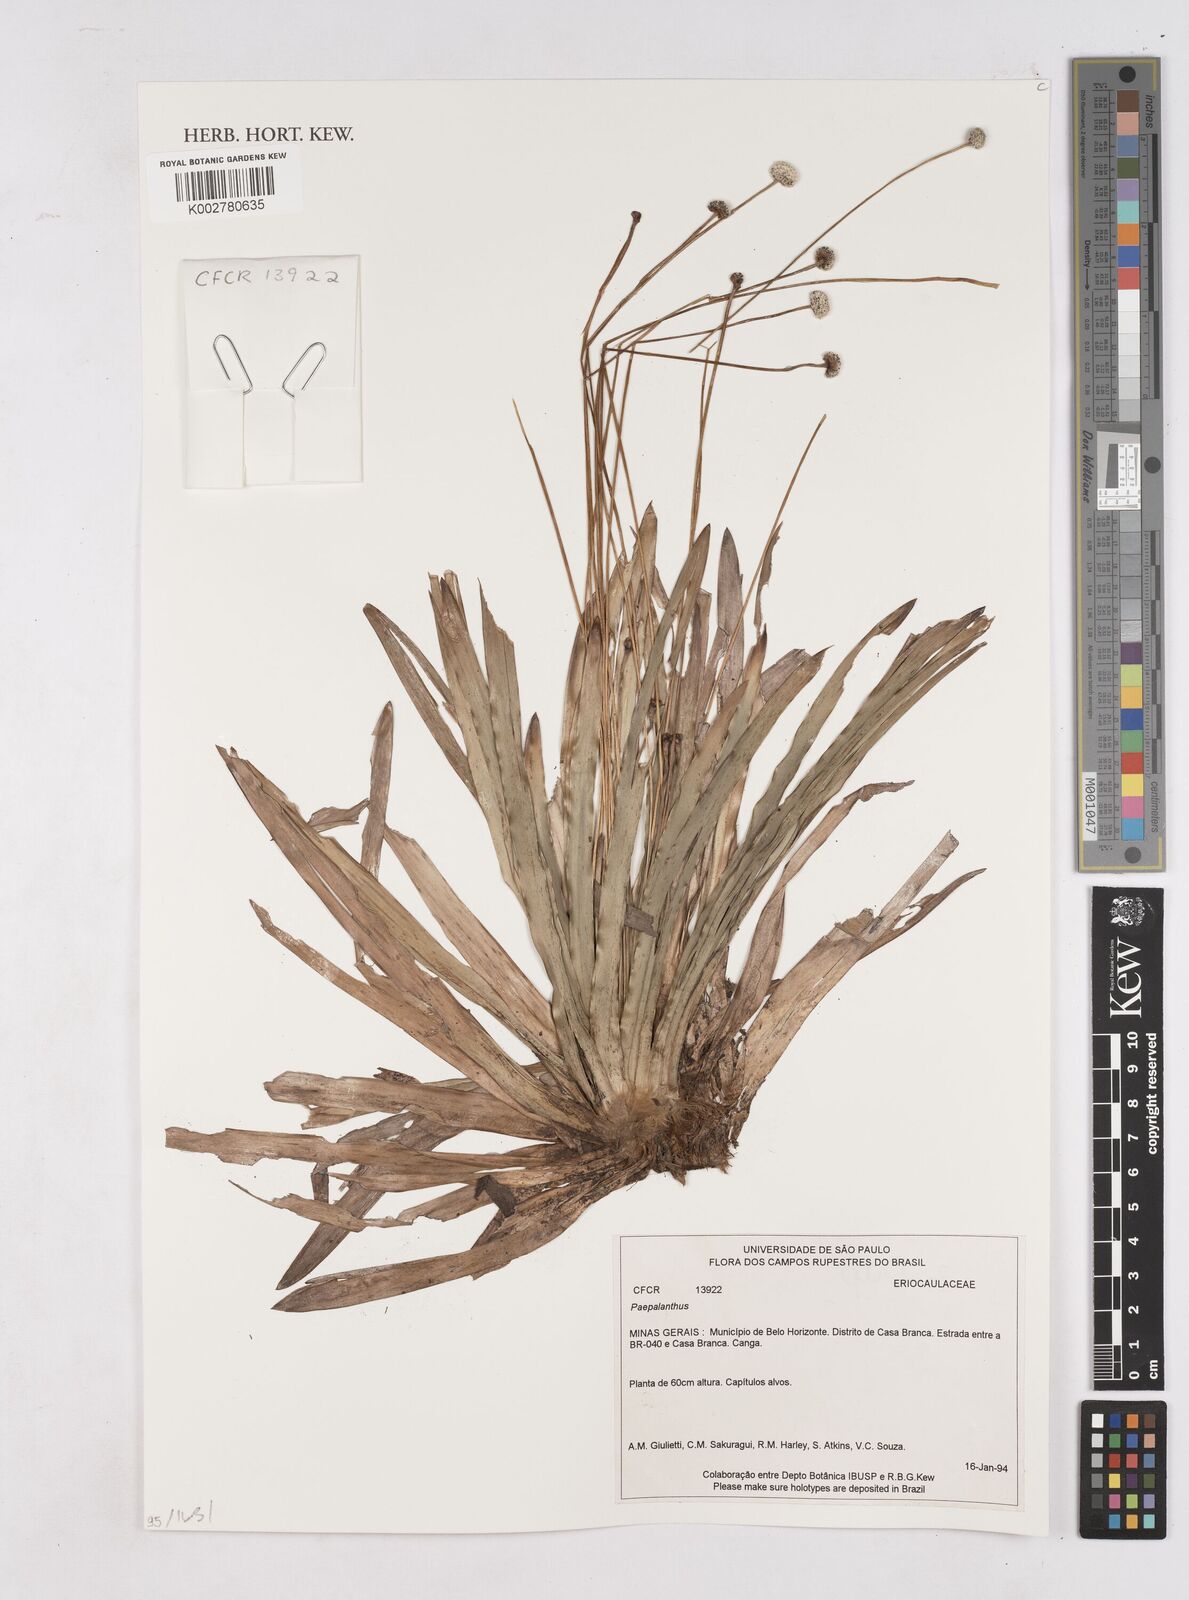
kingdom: Plantae
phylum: Tracheophyta
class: Liliopsida
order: Poales
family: Eriocaulaceae
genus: Paepalanthus
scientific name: Paepalanthus
